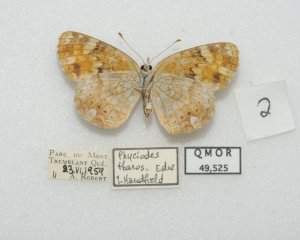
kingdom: Animalia
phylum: Arthropoda
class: Insecta
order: Lepidoptera
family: Nymphalidae
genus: Phyciodes
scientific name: Phyciodes tharos
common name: Northern Crescent
